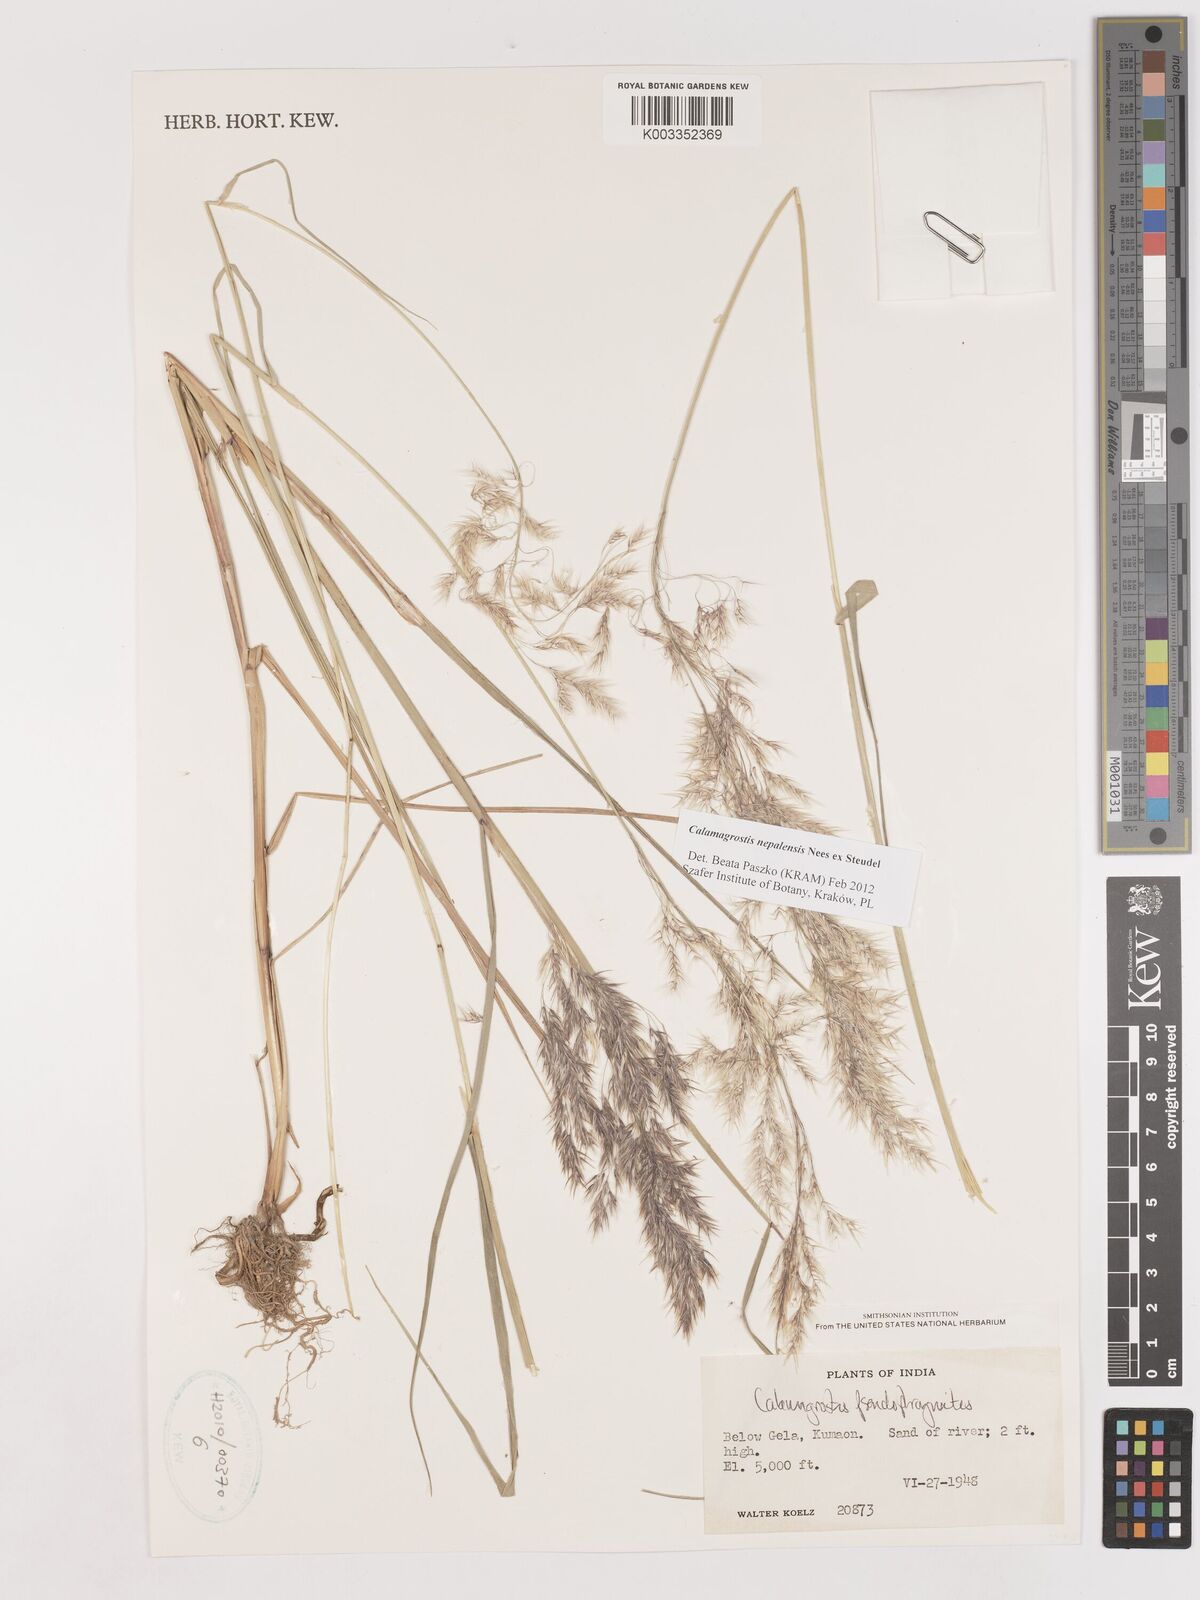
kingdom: Plantae
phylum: Tracheophyta
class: Liliopsida
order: Poales
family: Poaceae
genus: Calamagrostis
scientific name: Calamagrostis pseudophragmites
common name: Coastal small-reed
